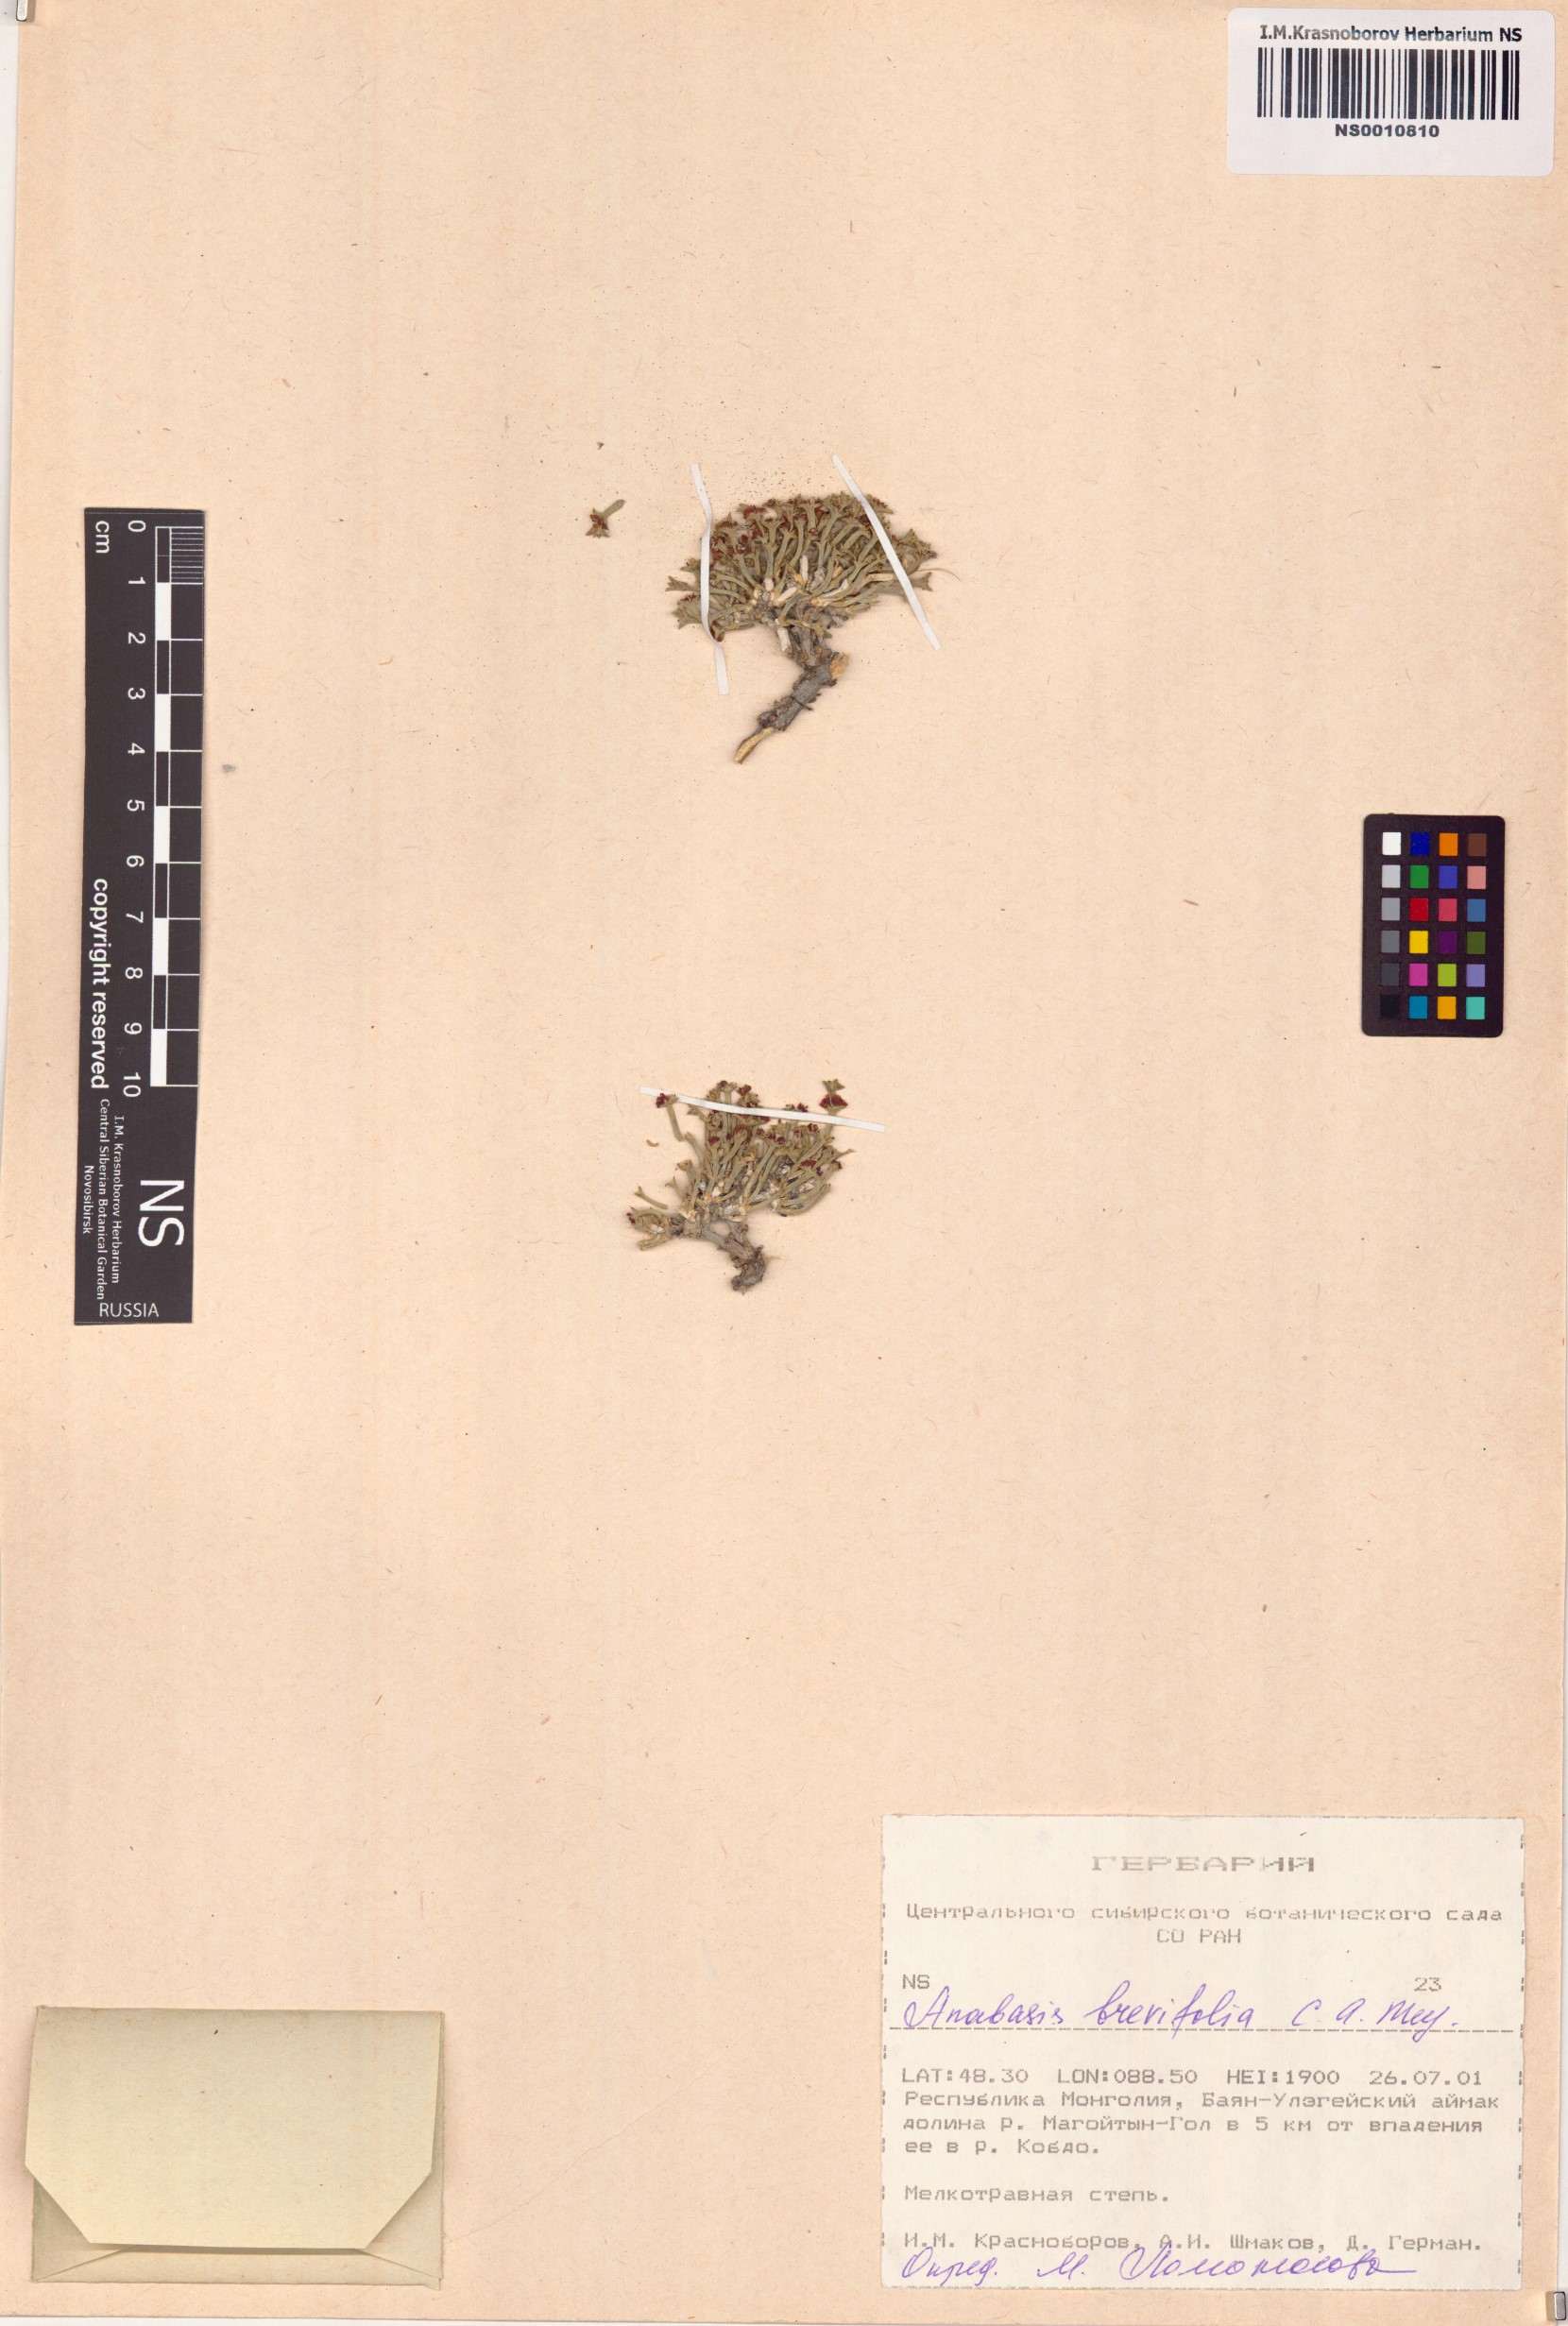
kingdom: Plantae
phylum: Tracheophyta
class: Magnoliopsida
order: Caryophyllales
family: Amaranthaceae
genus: Anabasis
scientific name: Anabasis brevifolia
